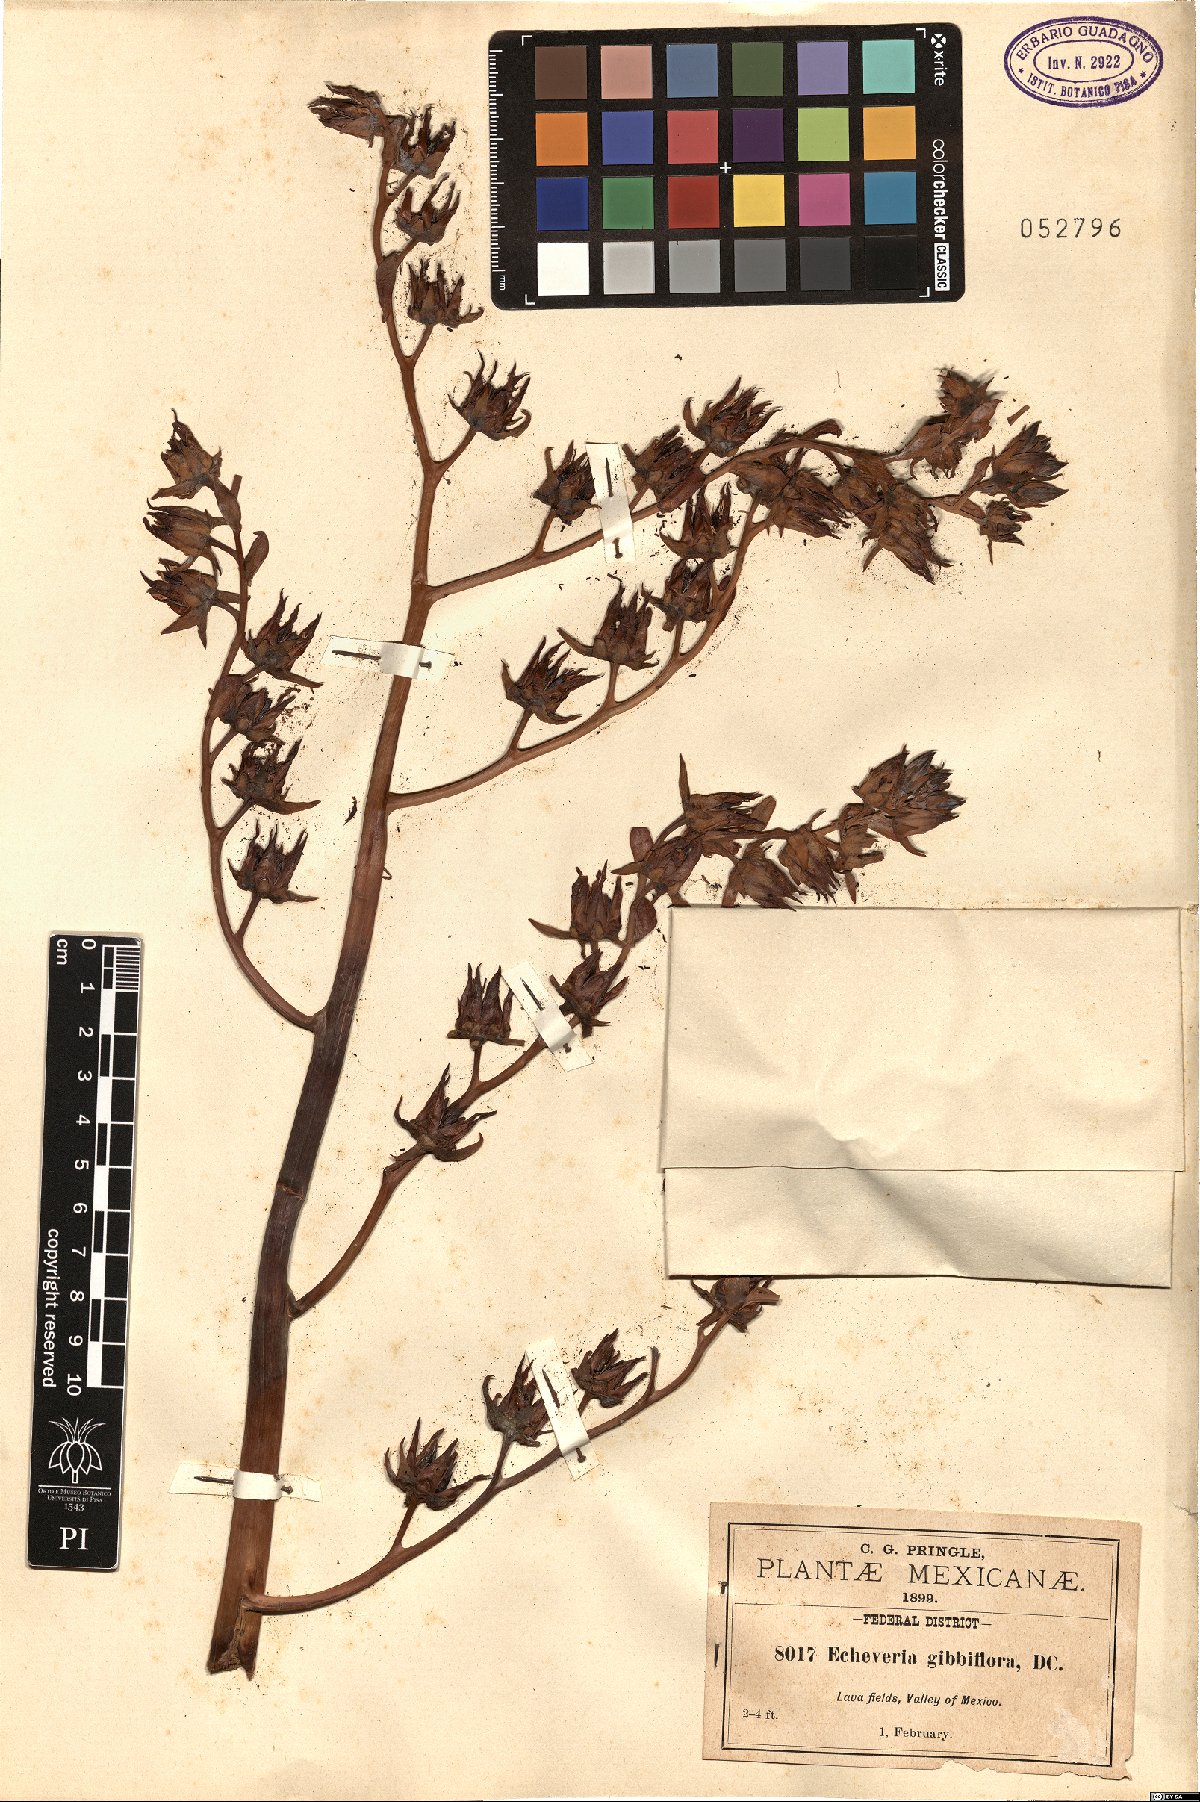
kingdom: Plantae
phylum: Tracheophyta
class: Magnoliopsida
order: Saxifragales
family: Crassulaceae
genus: Echeveria
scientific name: Echeveria gibbiflora
